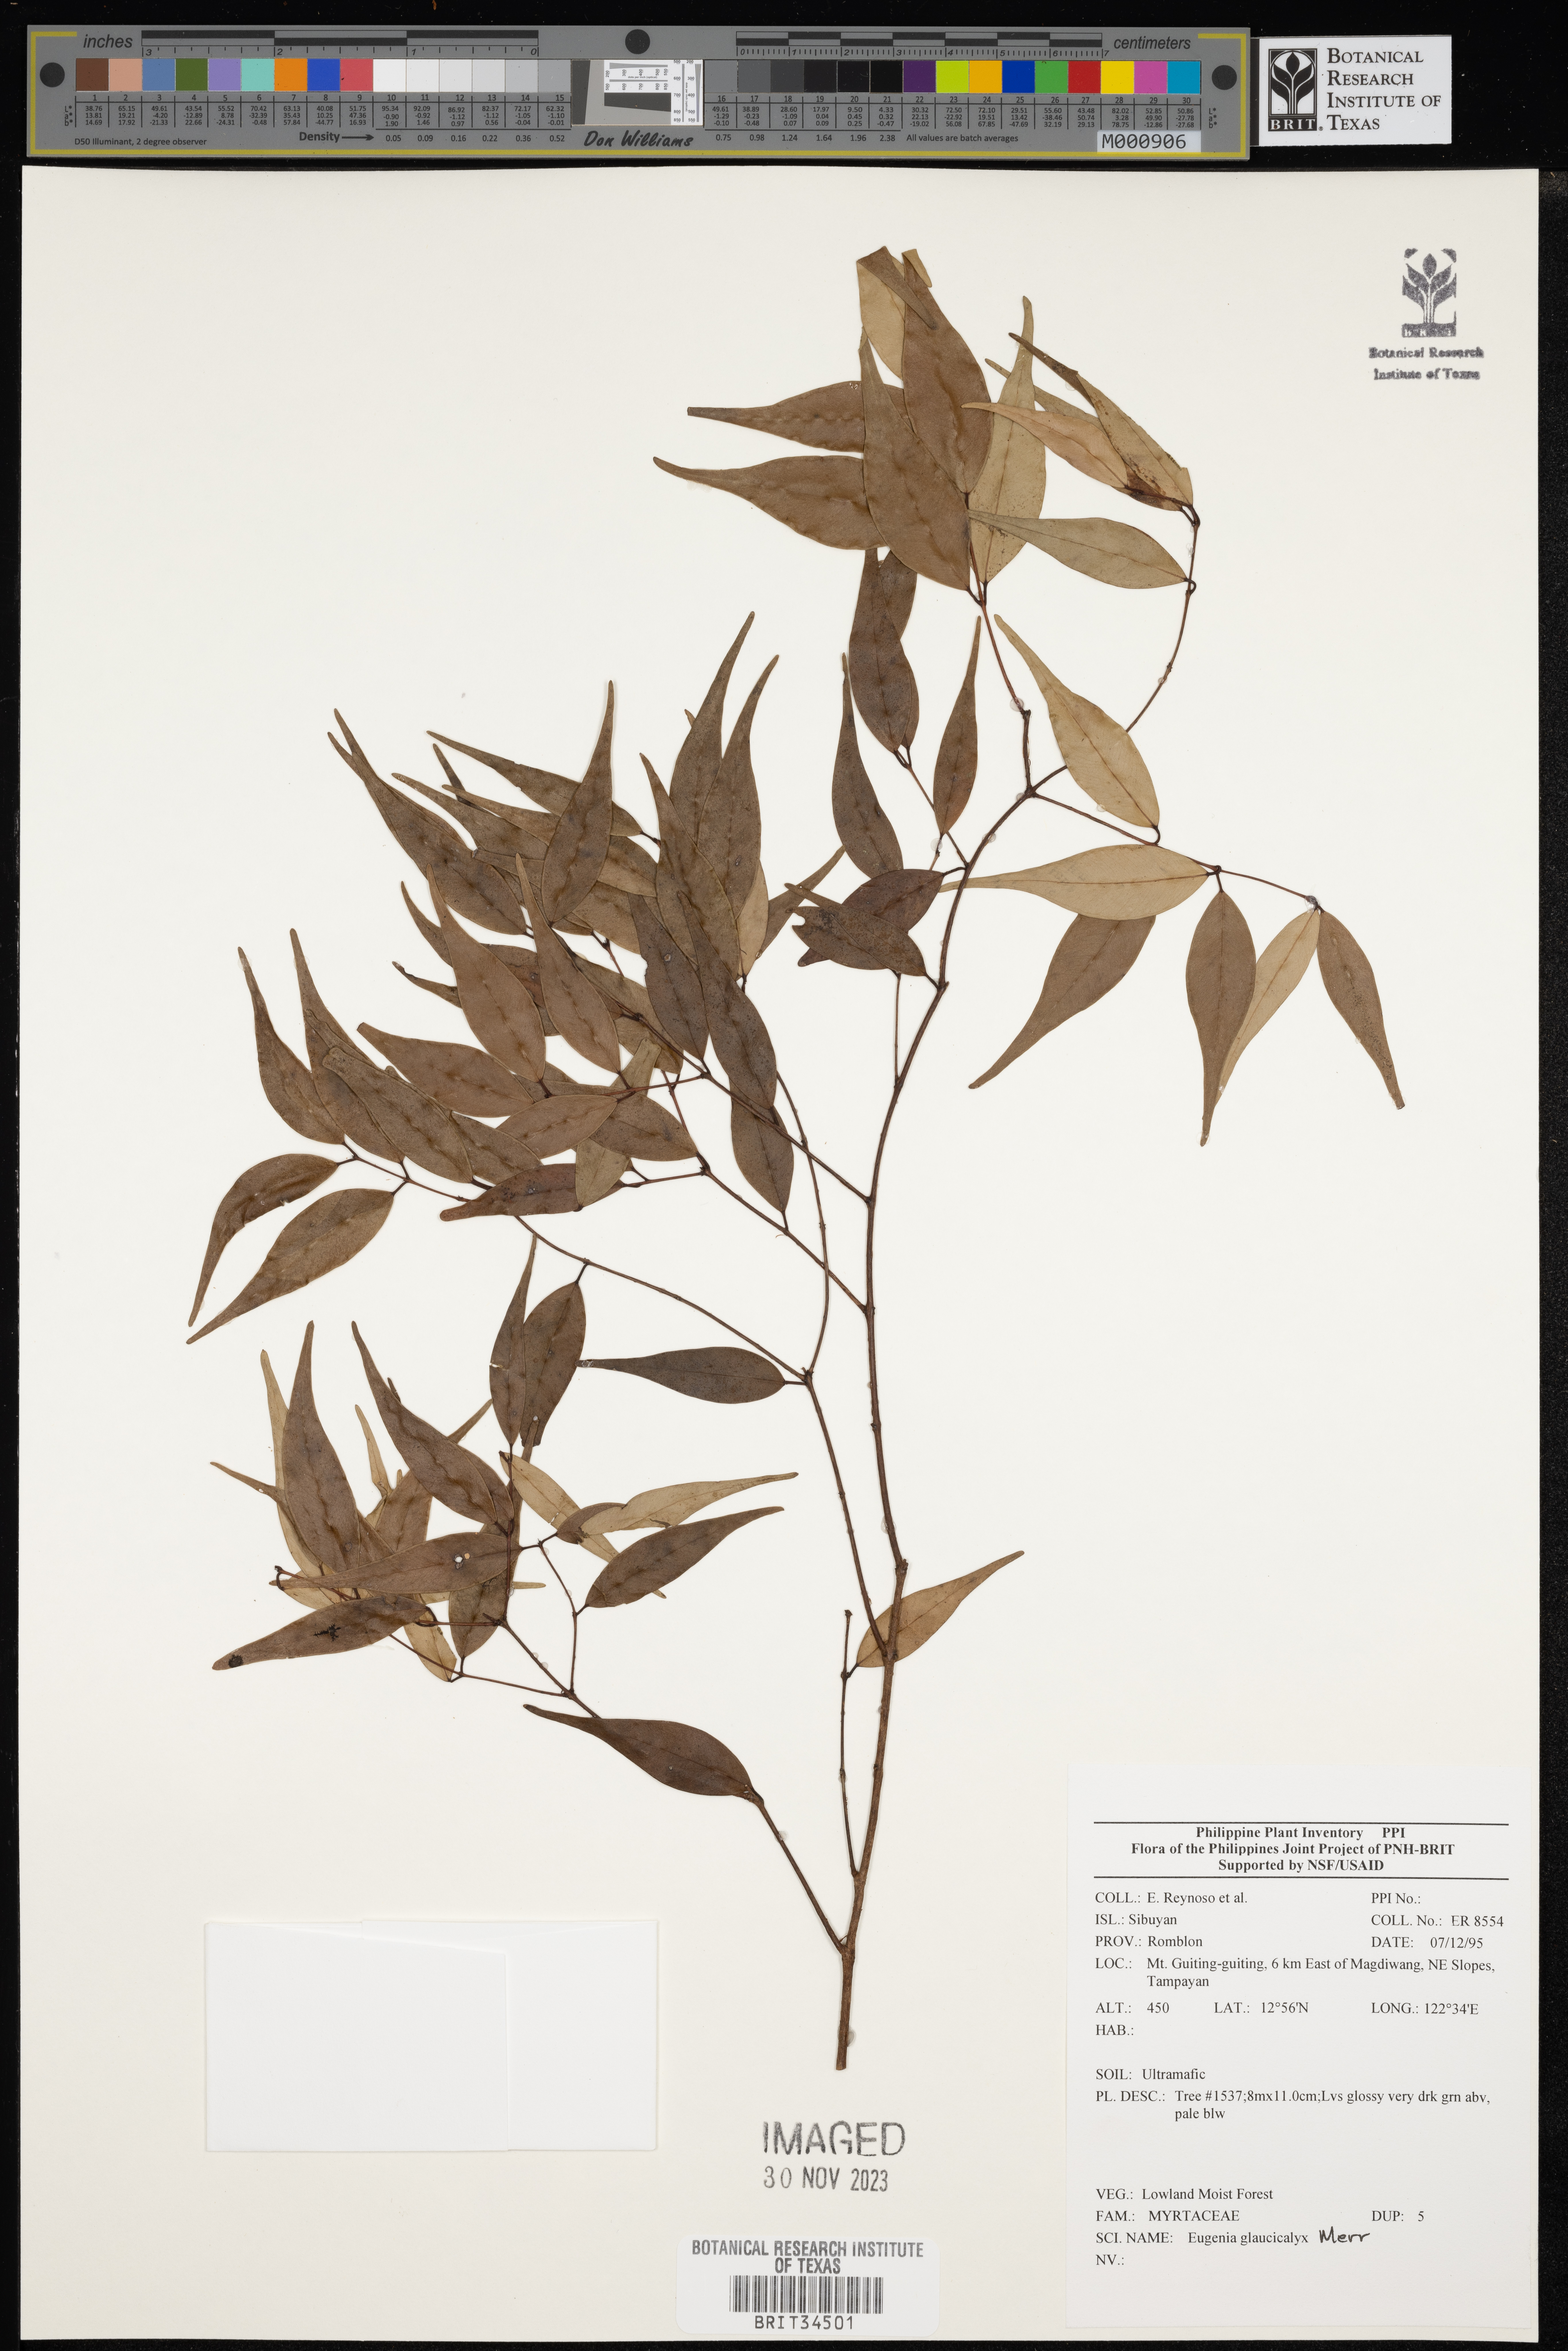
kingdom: Plantae
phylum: Tracheophyta
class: Magnoliopsida
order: Myrtales
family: Myrtaceae
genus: Eugenia
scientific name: Eugenia
